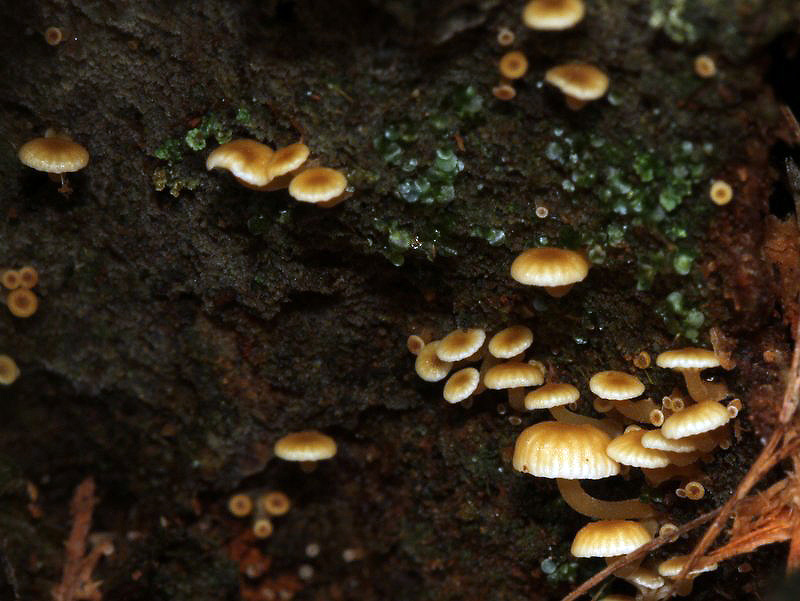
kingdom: Fungi
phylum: Basidiomycota
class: Agaricomycetes
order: Agaricales
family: Mycenaceae
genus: Xeromphalina
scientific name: Xeromphalina campanella
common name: klokke-tørhat
